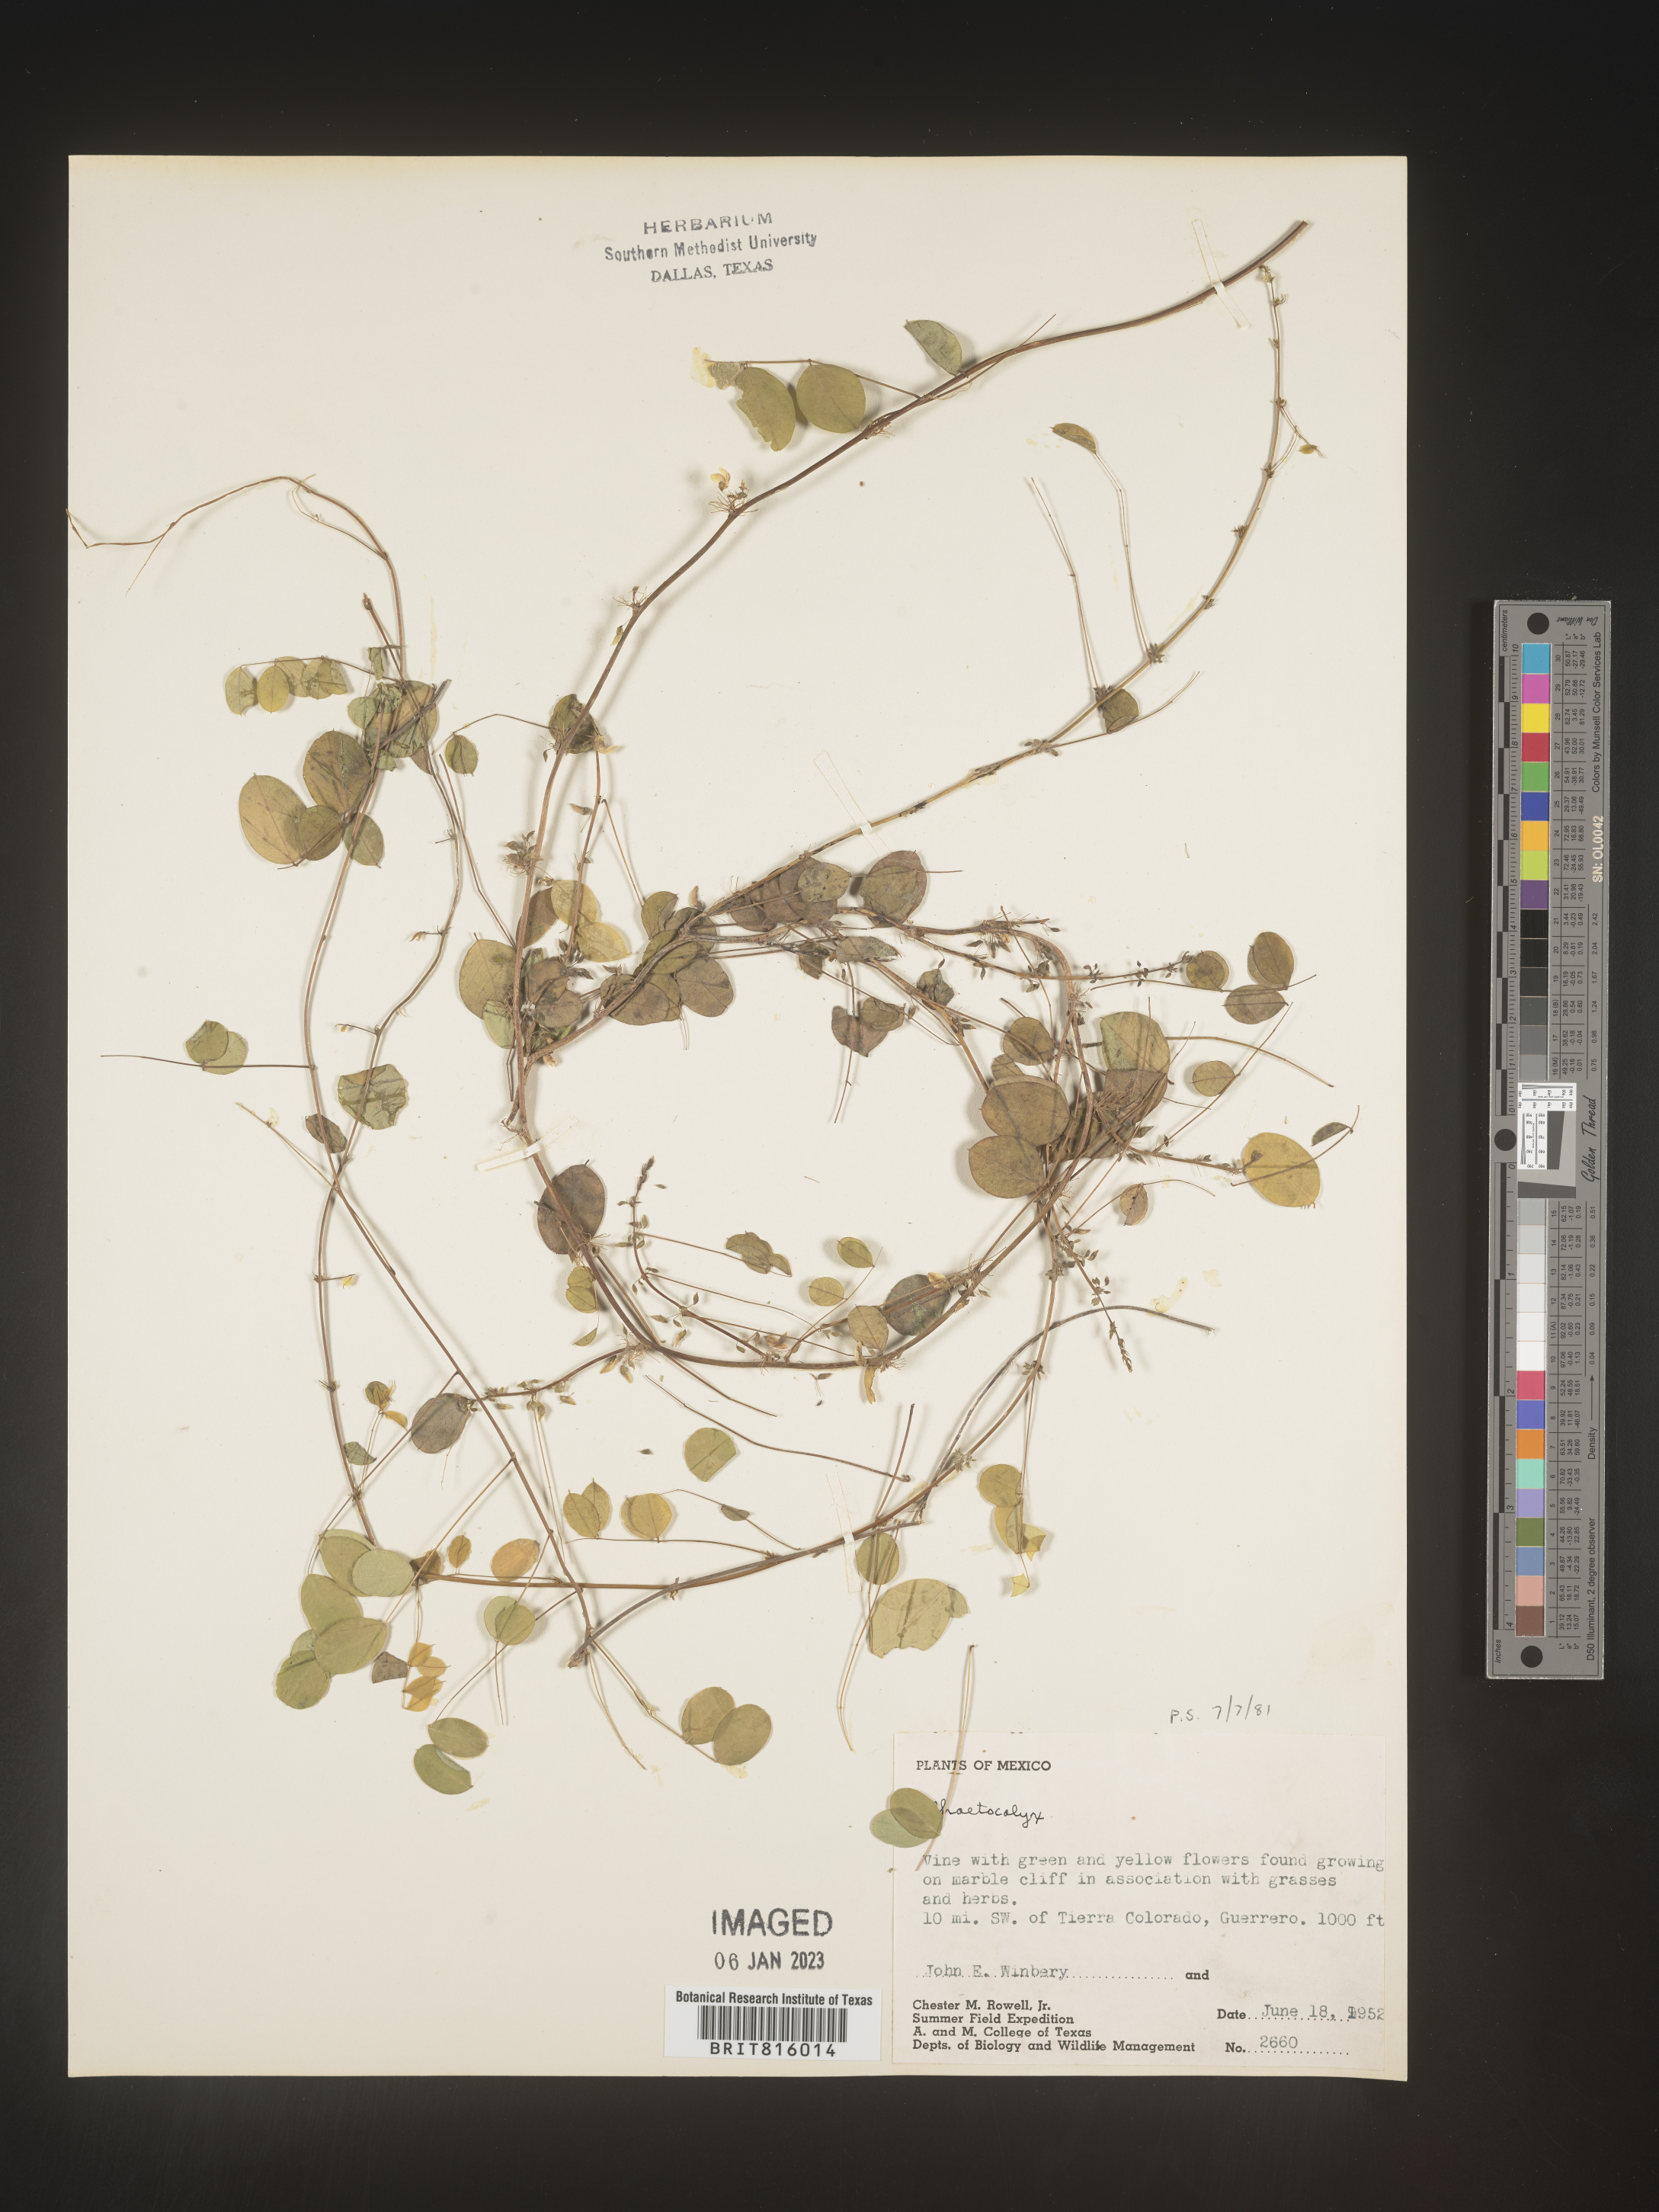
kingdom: Plantae
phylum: Tracheophyta
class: Magnoliopsida
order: Fabales
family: Fabaceae
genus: Nissolia
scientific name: Nissolia
